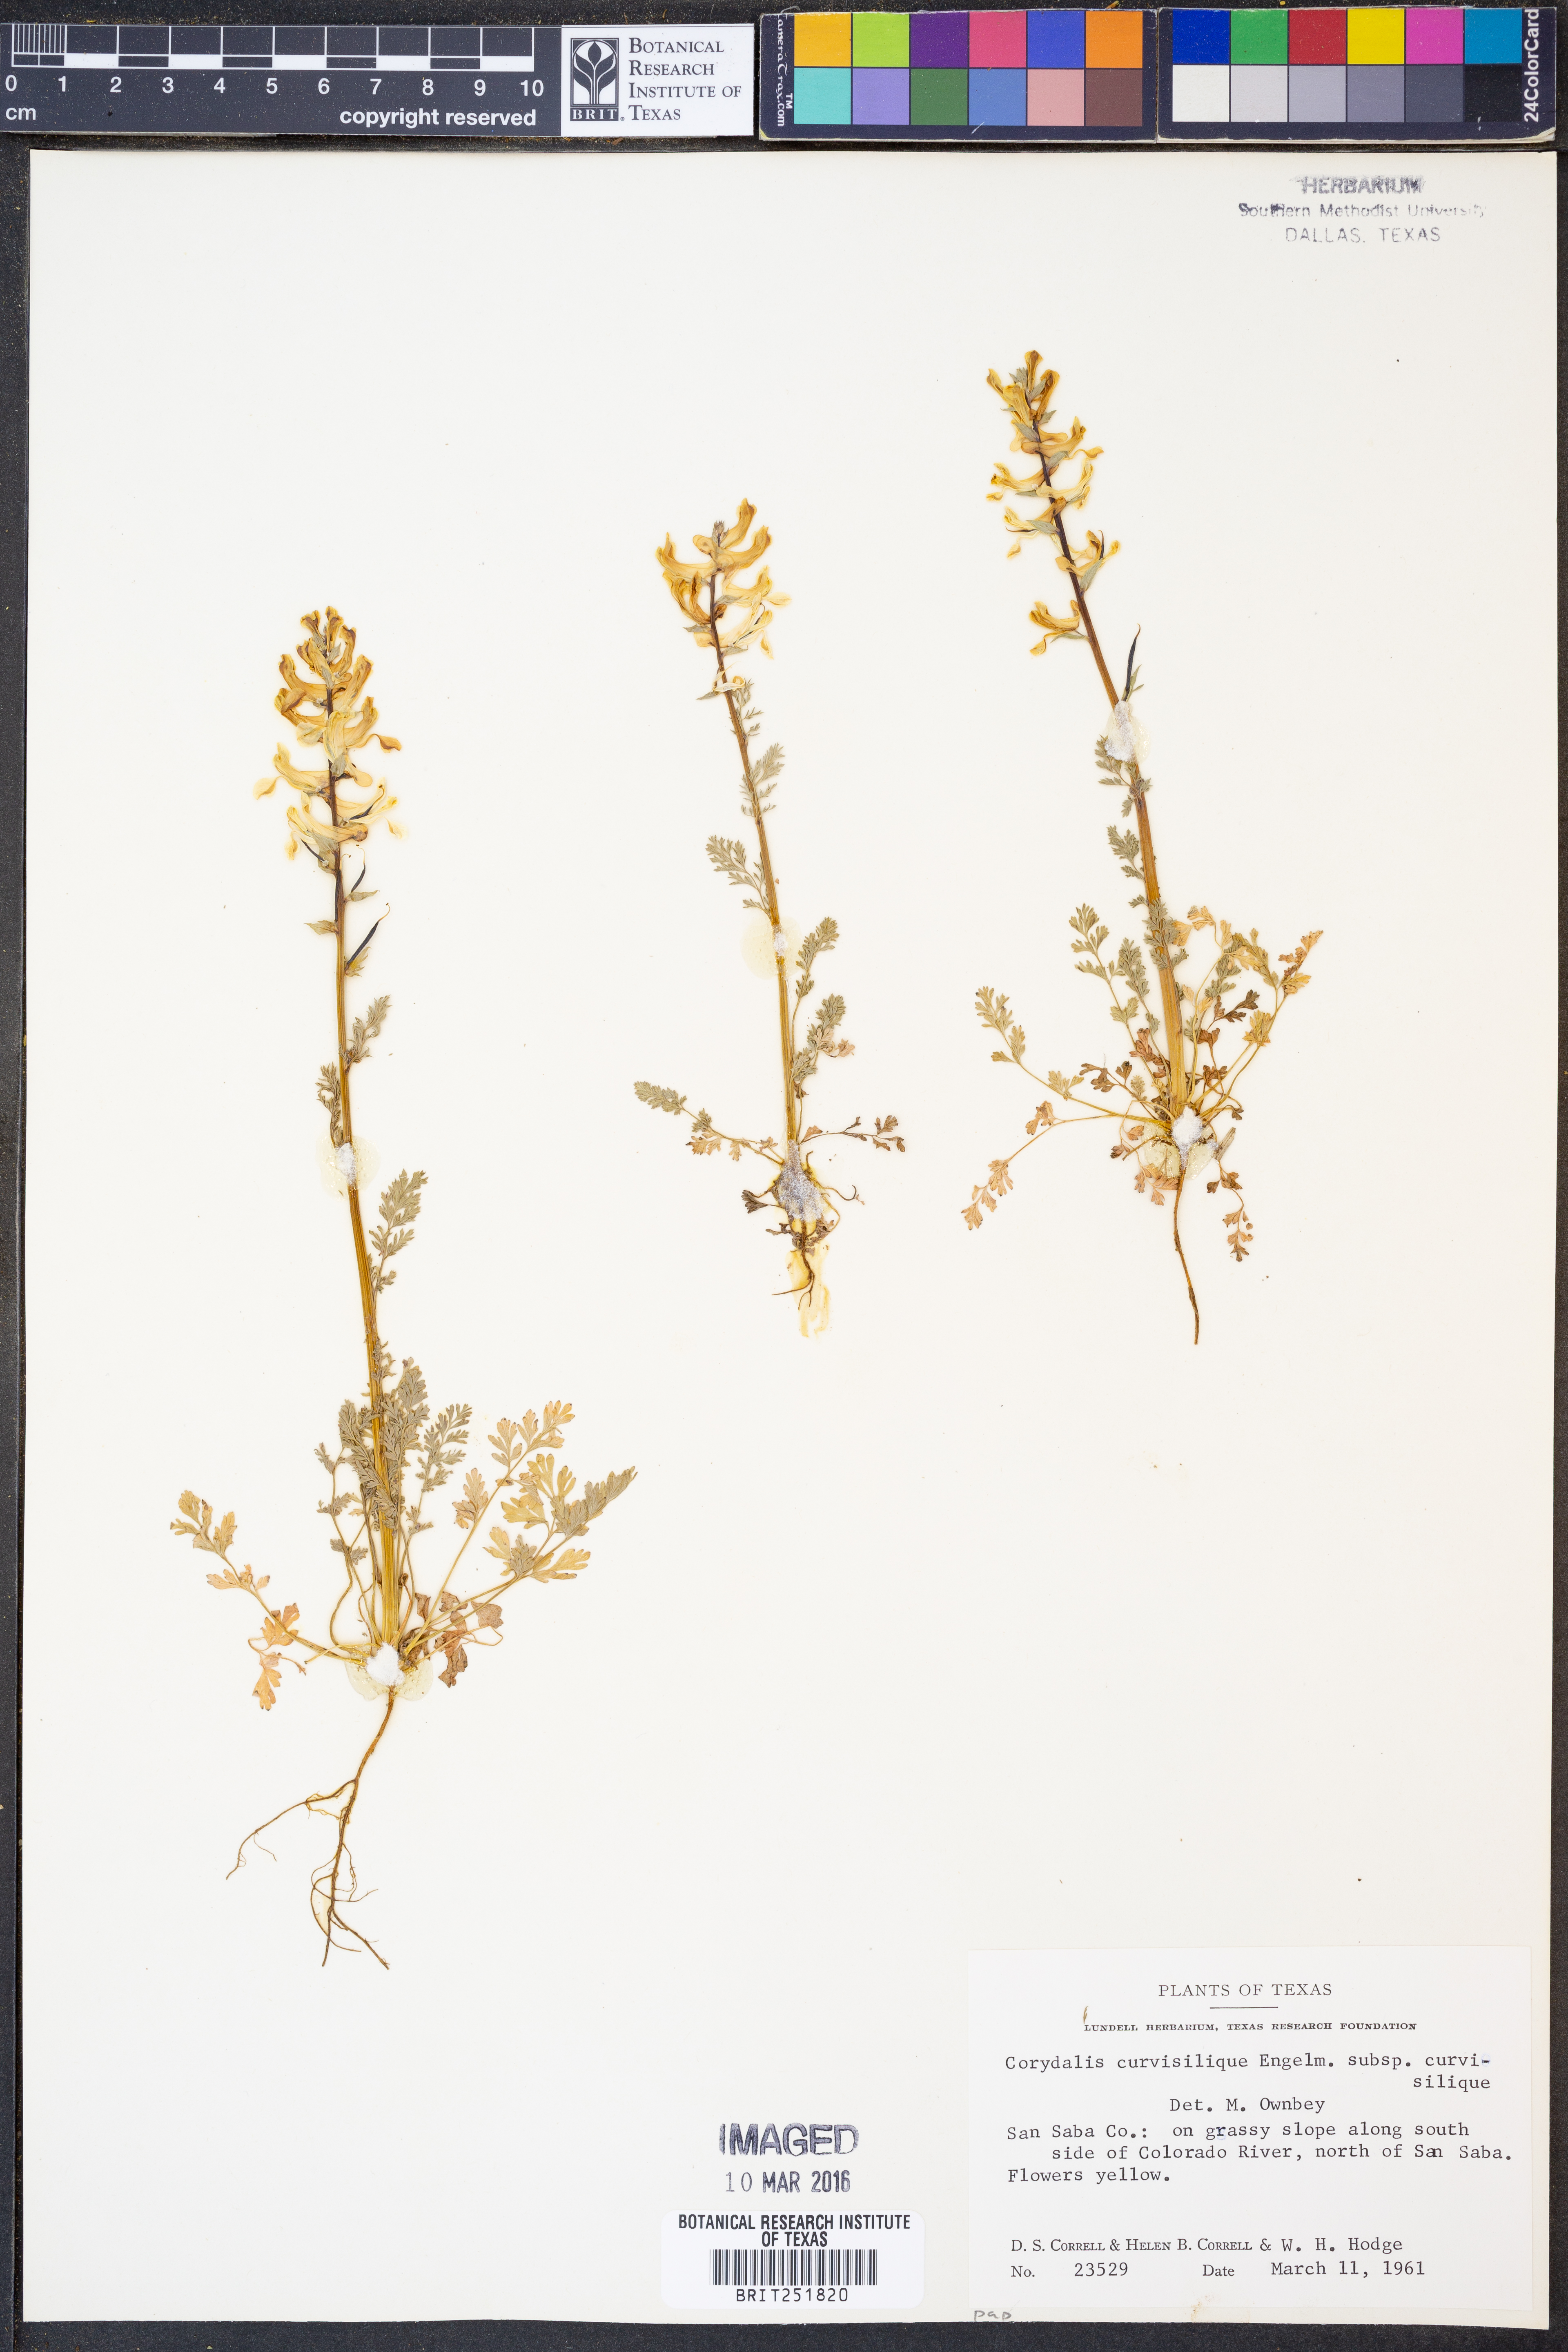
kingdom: Plantae
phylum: Tracheophyta
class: Magnoliopsida
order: Ranunculales
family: Papaveraceae
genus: Corydalis
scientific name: Corydalis curvisiliqua
